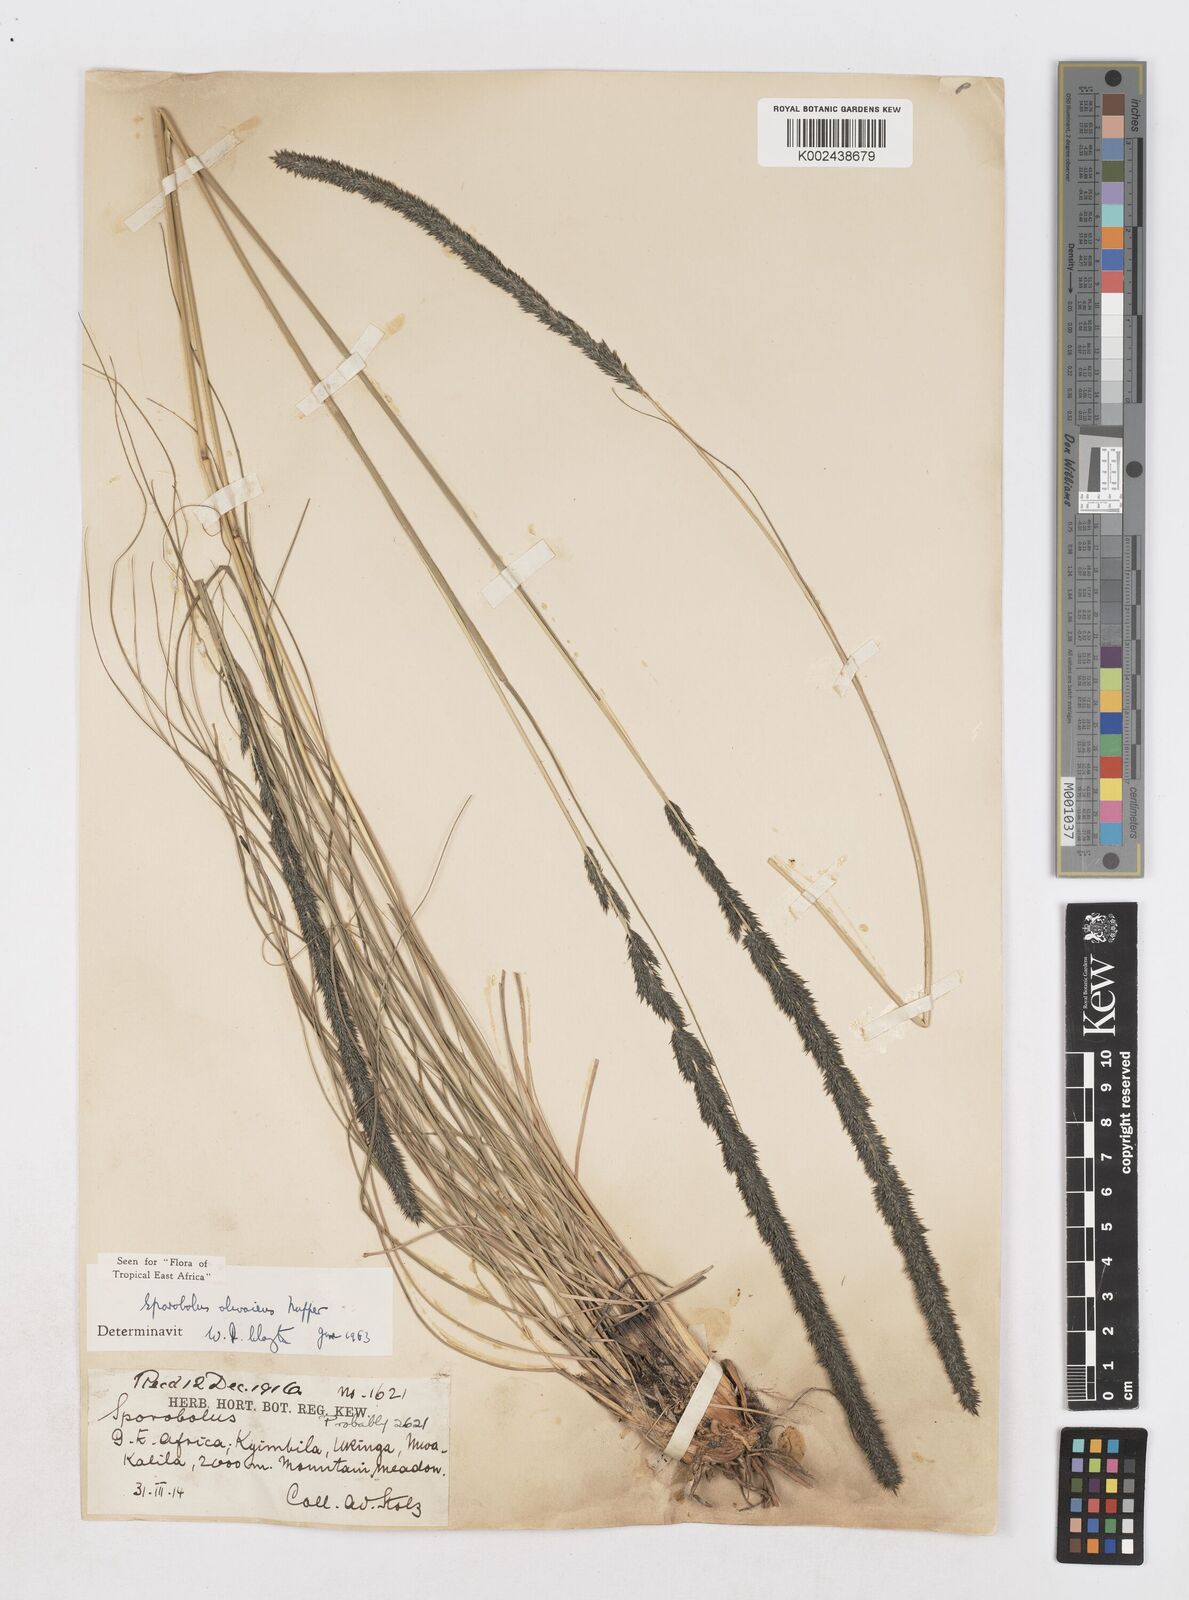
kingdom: Plantae
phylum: Tracheophyta
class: Liliopsida
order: Poales
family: Poaceae
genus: Sporobolus
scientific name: Sporobolus olivaceus
